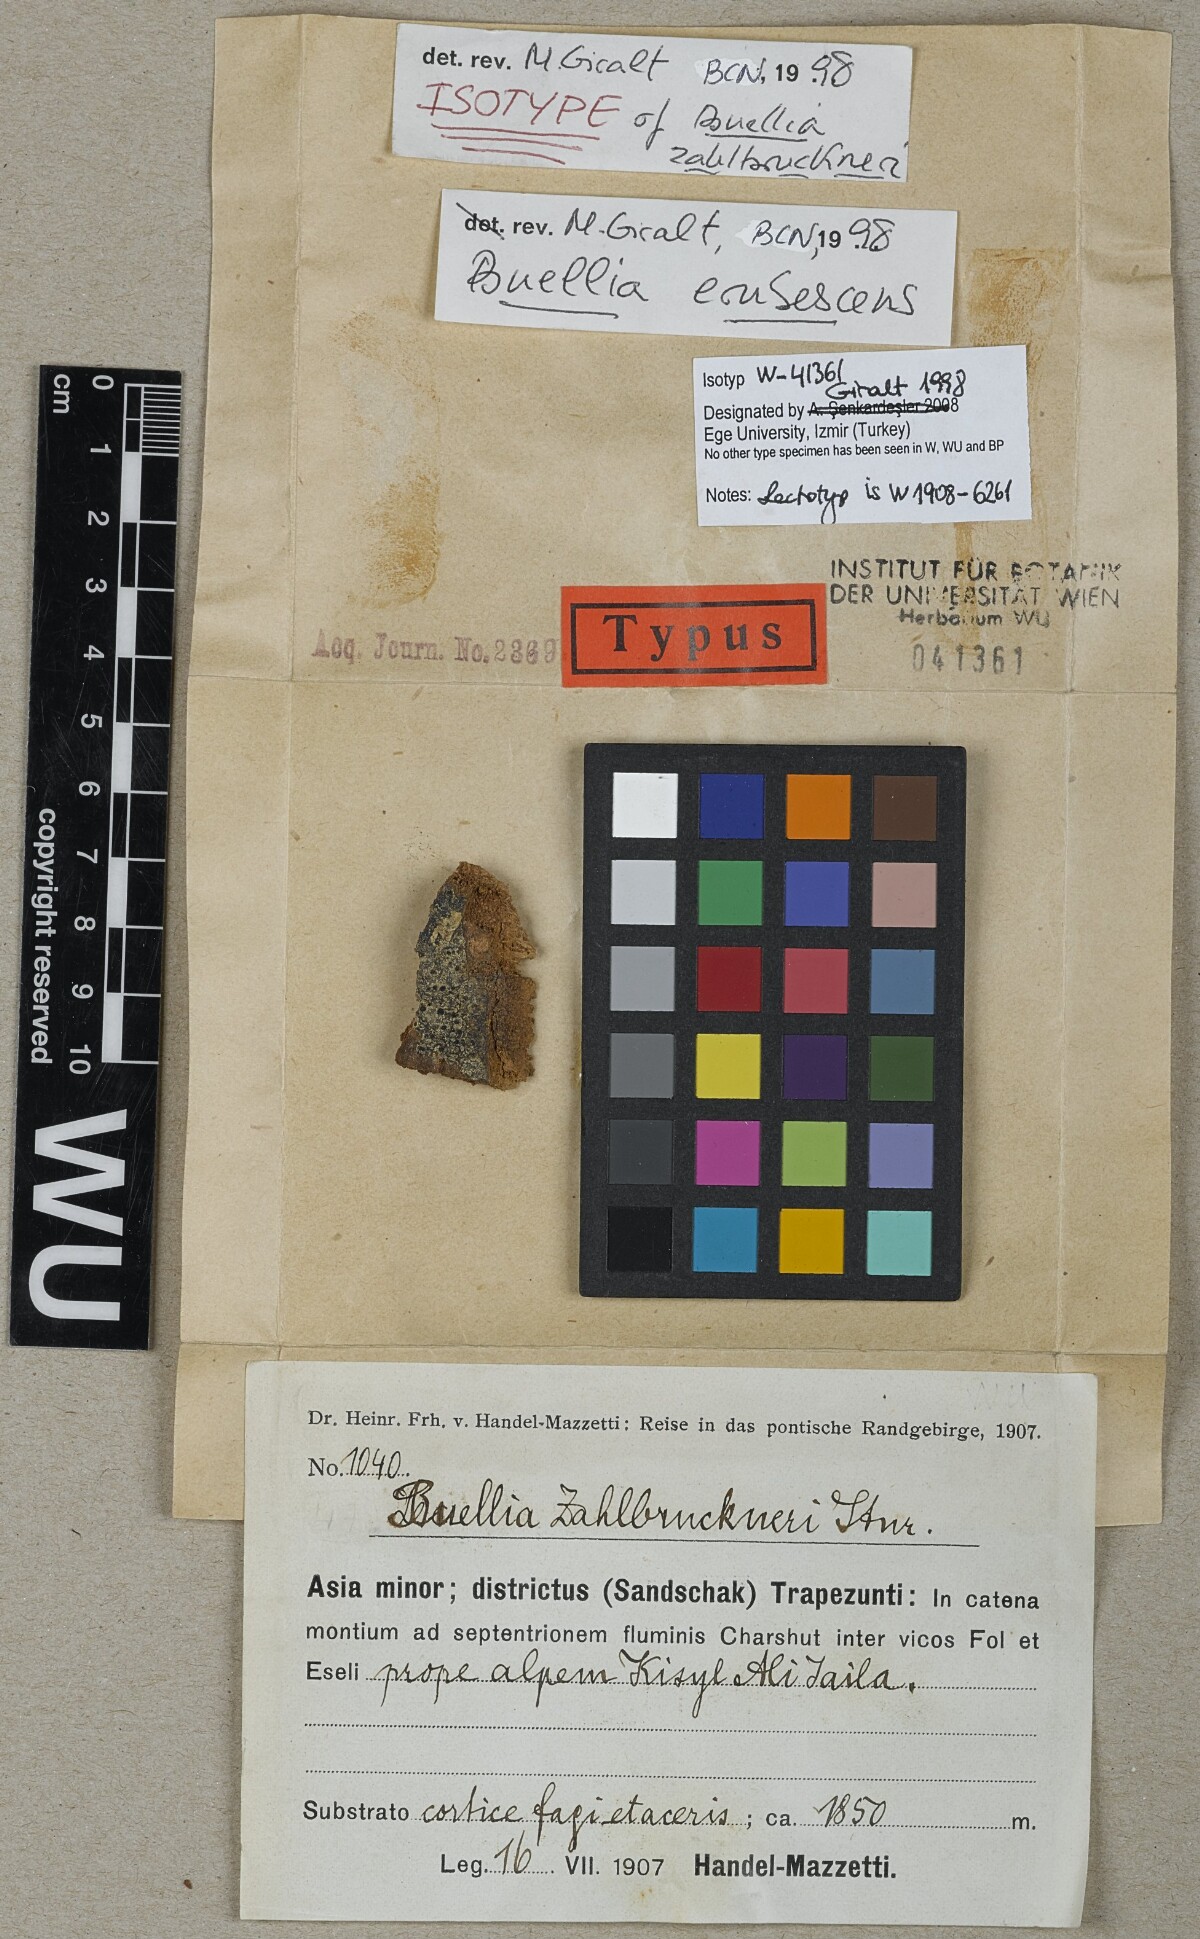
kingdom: Fungi
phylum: Ascomycota
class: Lecanoromycetes
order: Caliciales
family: Caliciaceae
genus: Buellia
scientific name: Buellia erubescens
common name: Common button lichen
